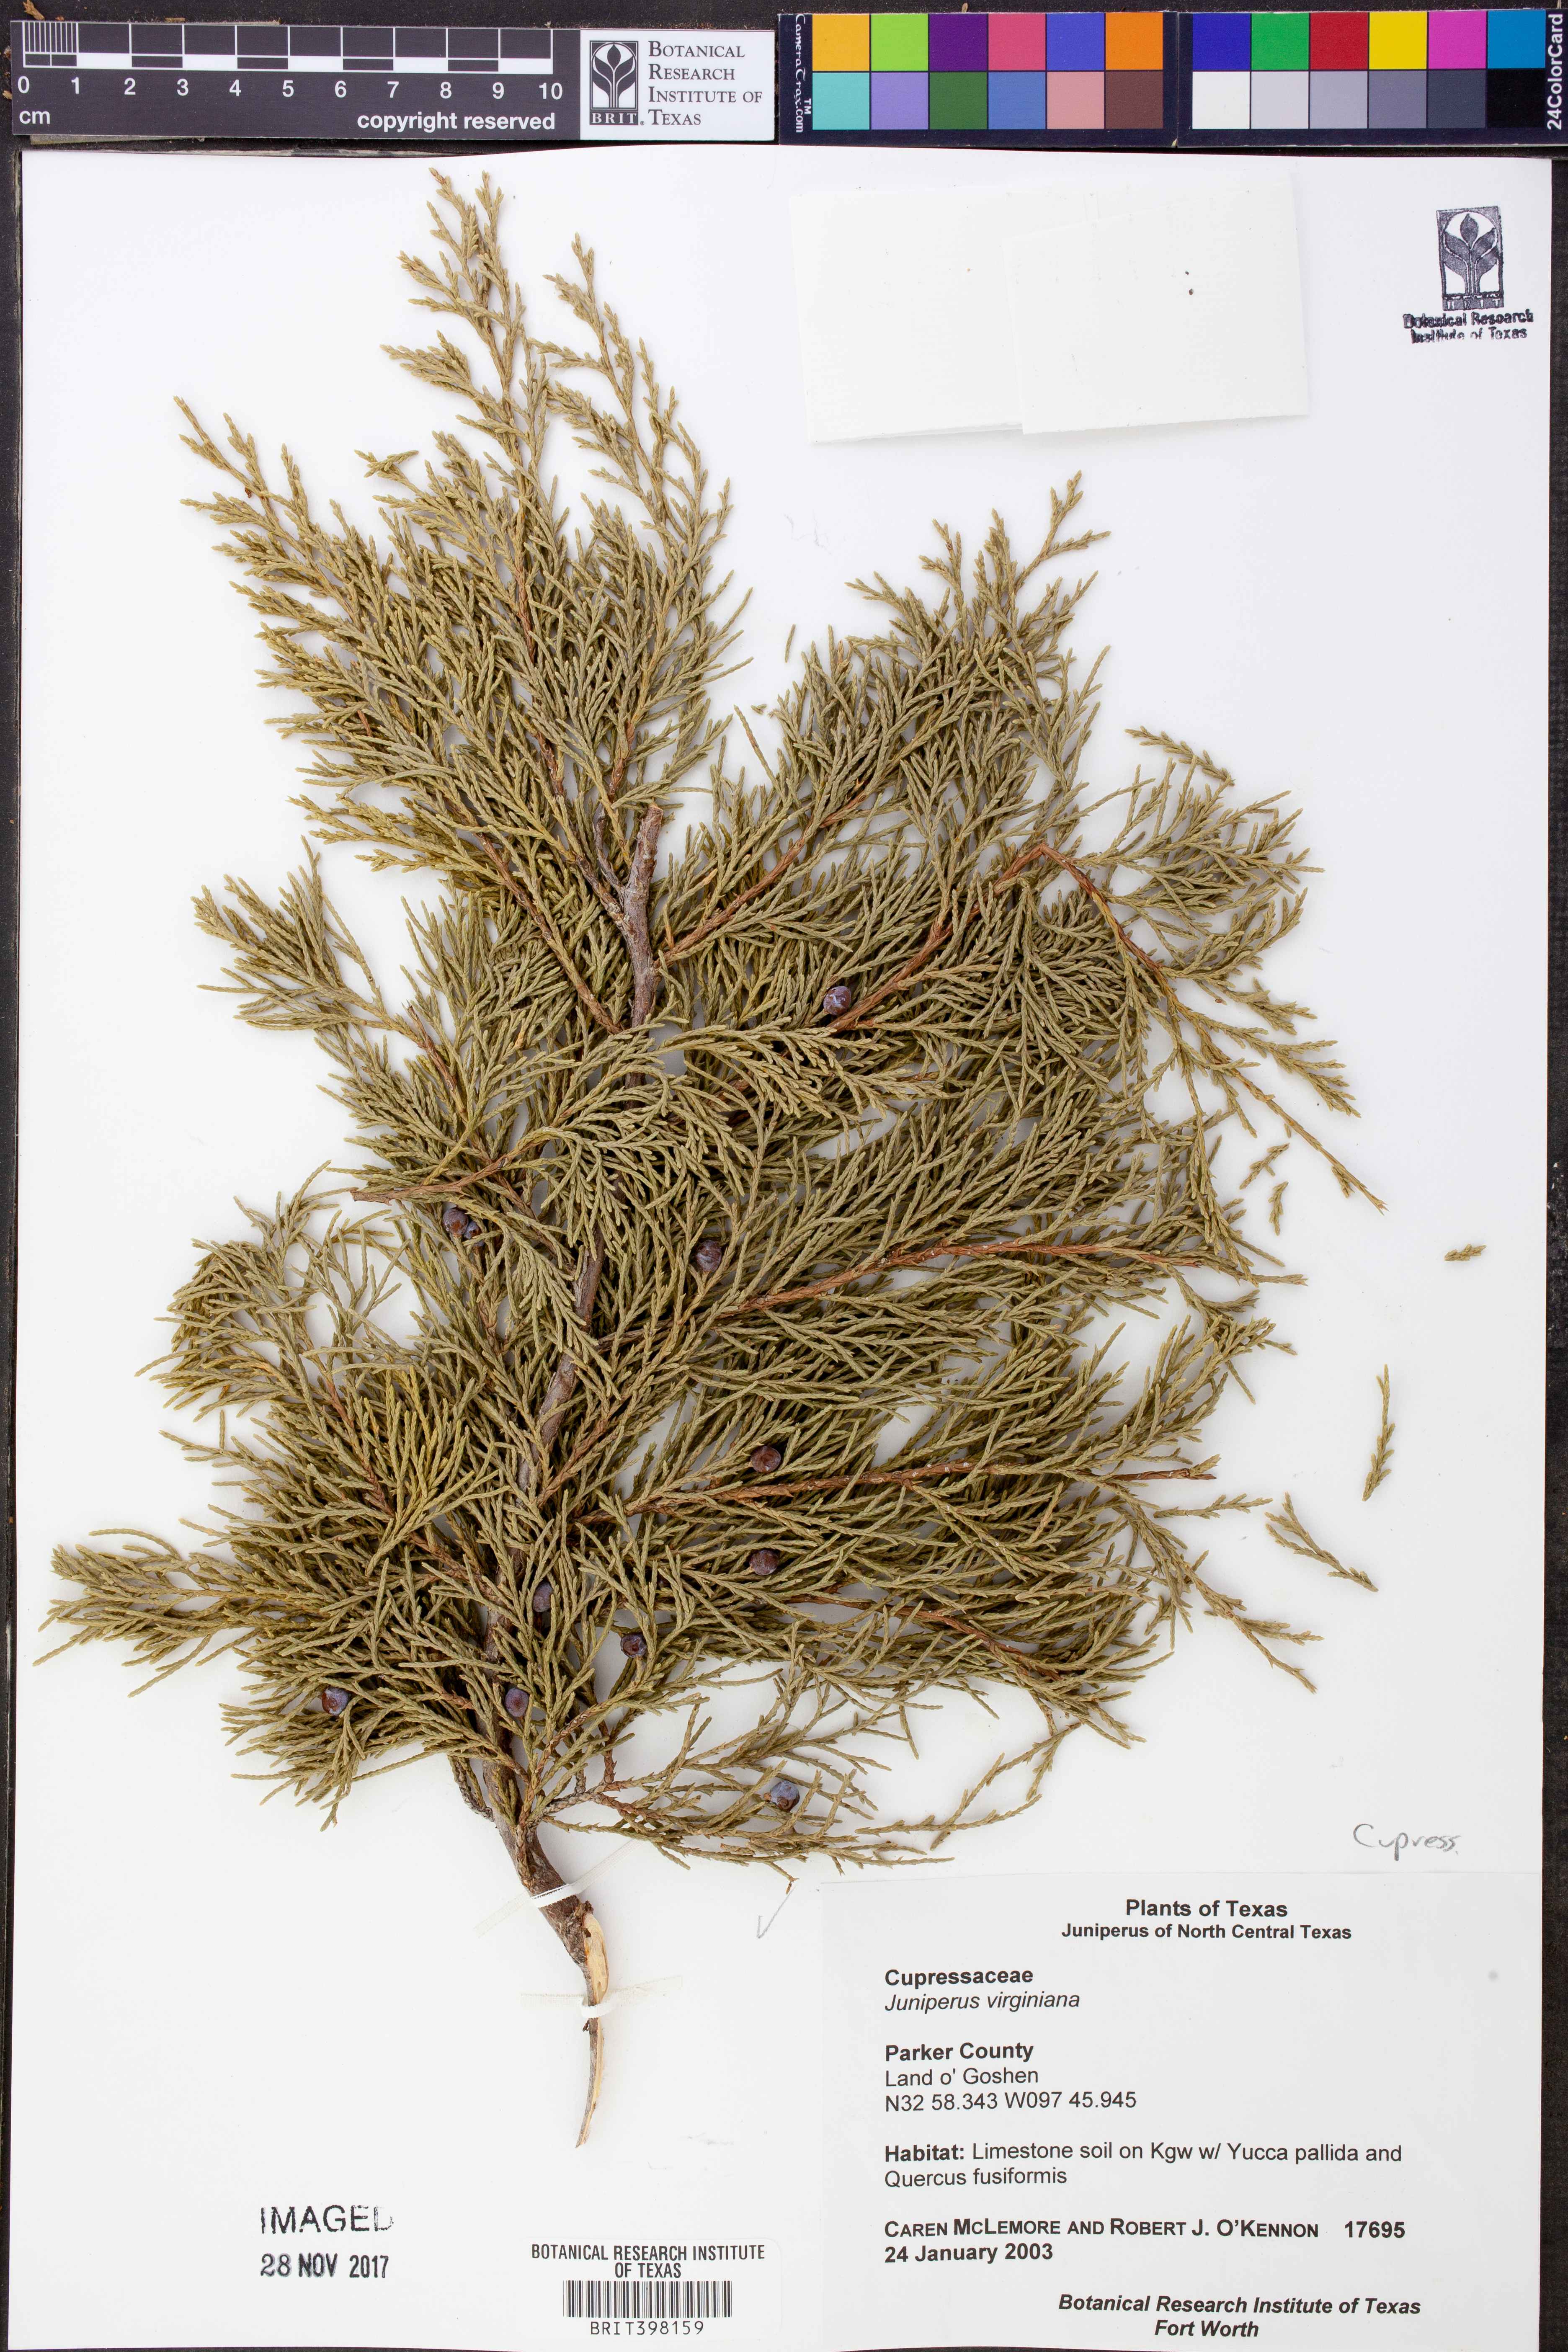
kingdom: Plantae
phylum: Tracheophyta
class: Pinopsida
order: Pinales
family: Cupressaceae
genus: Juniperus
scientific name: Juniperus virginiana
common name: Red juniper
